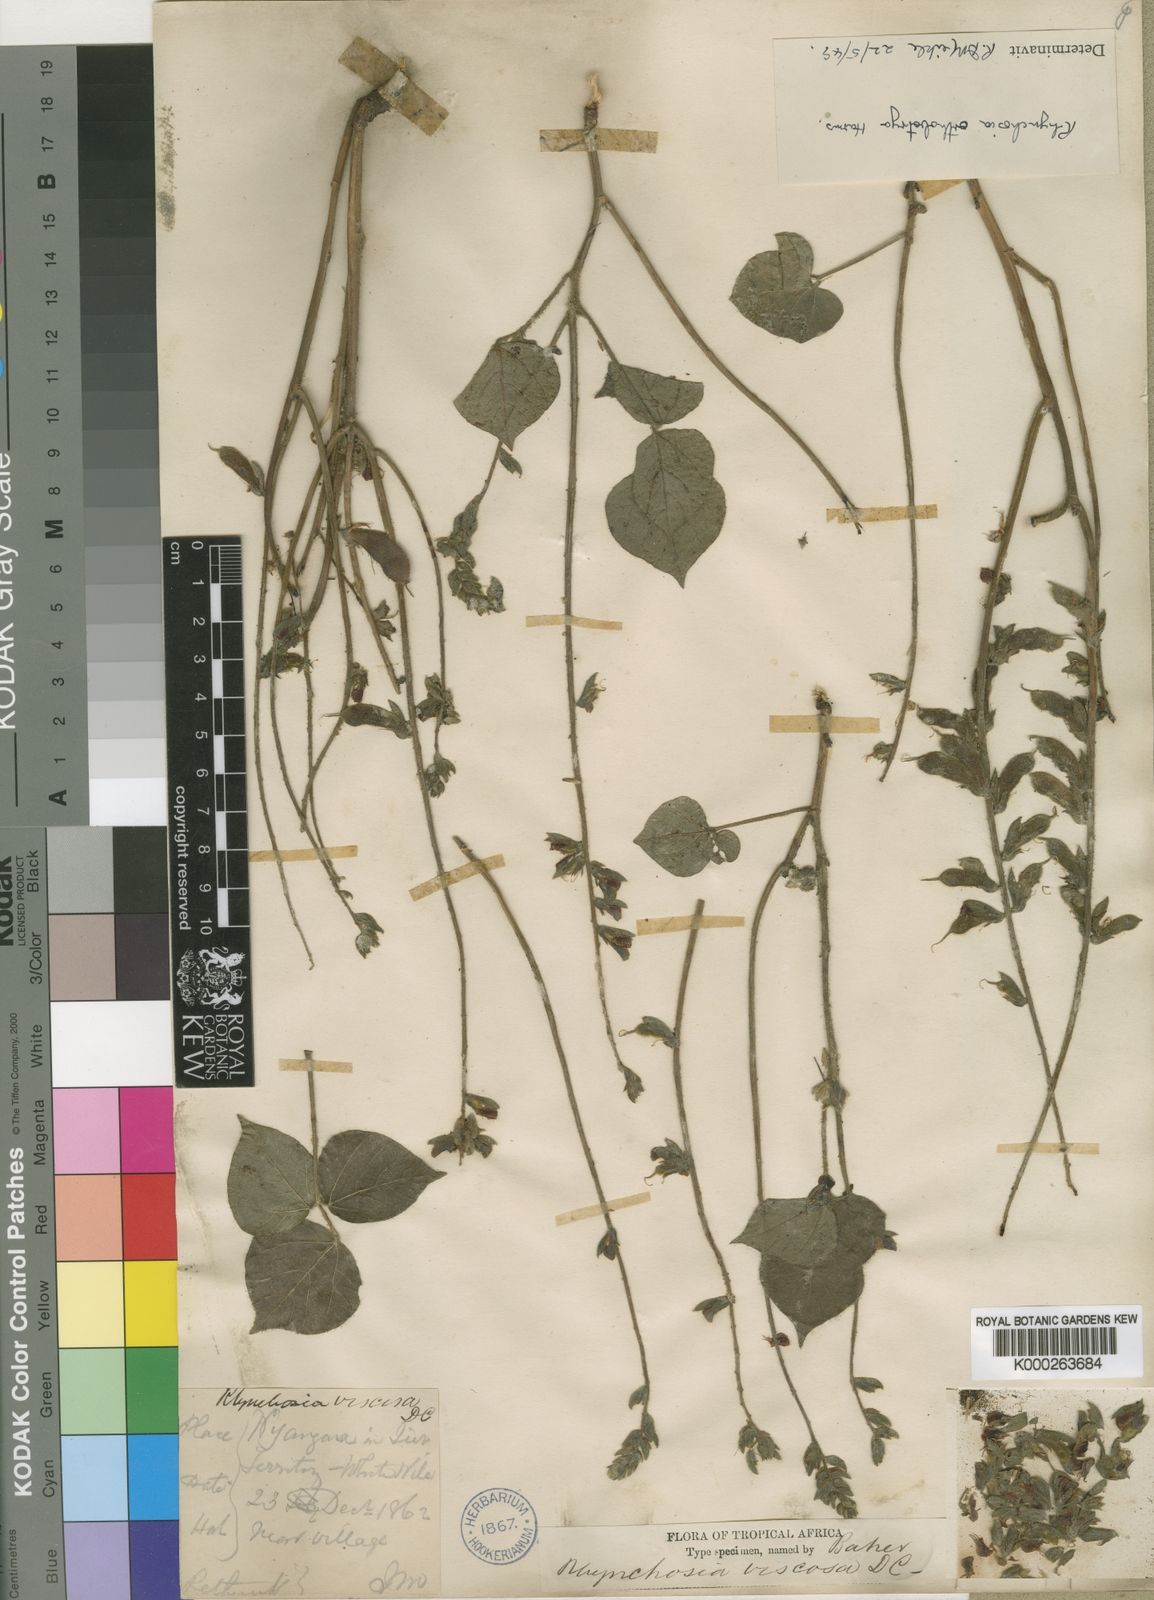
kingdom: Plantae
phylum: Tracheophyta
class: Magnoliopsida
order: Fabales
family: Fabaceae
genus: Rhynchosia
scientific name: Rhynchosia orthobotrya
